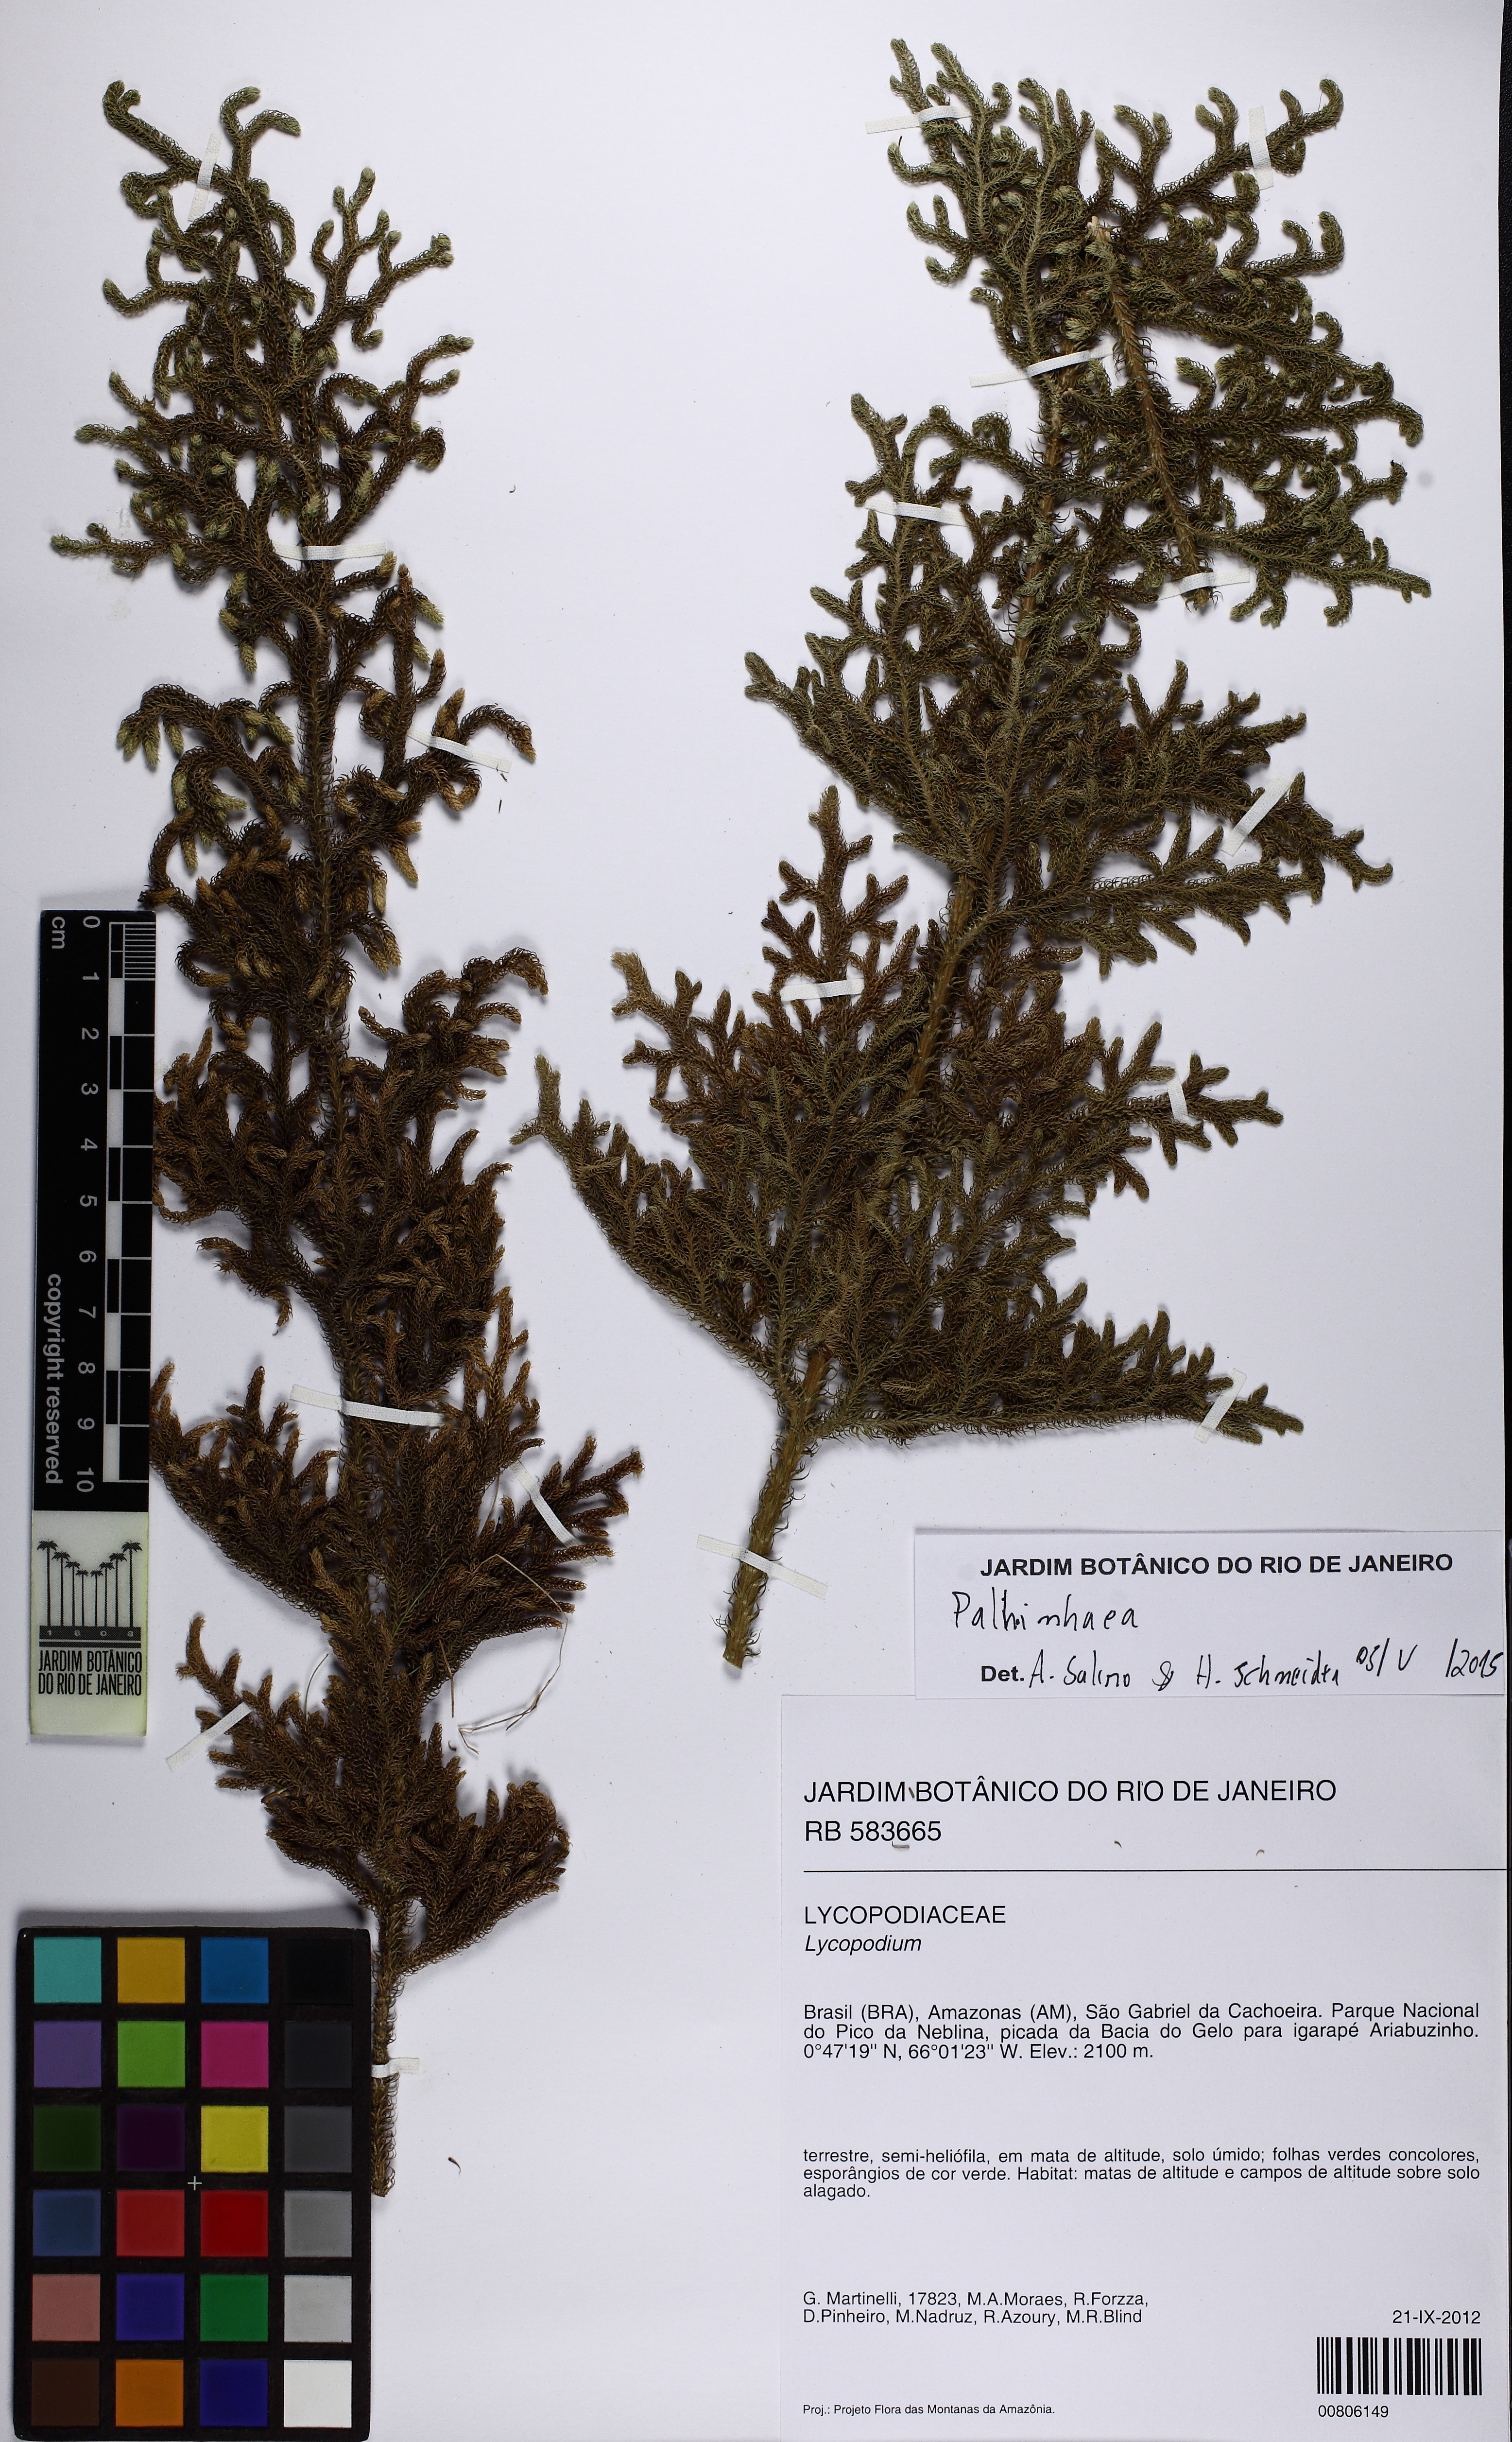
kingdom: Plantae
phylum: Tracheophyta
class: Lycopodiopsida
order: Lycopodiales
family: Lycopodiaceae
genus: Palhinhaea
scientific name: Palhinhaea
